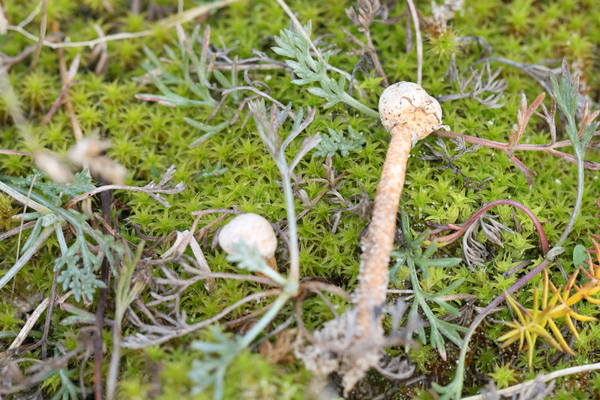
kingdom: Fungi
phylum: Basidiomycota
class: Agaricomycetes
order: Agaricales
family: Agaricaceae
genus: Tulostoma
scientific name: Tulostoma brumale
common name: vinter-stilkbovist
